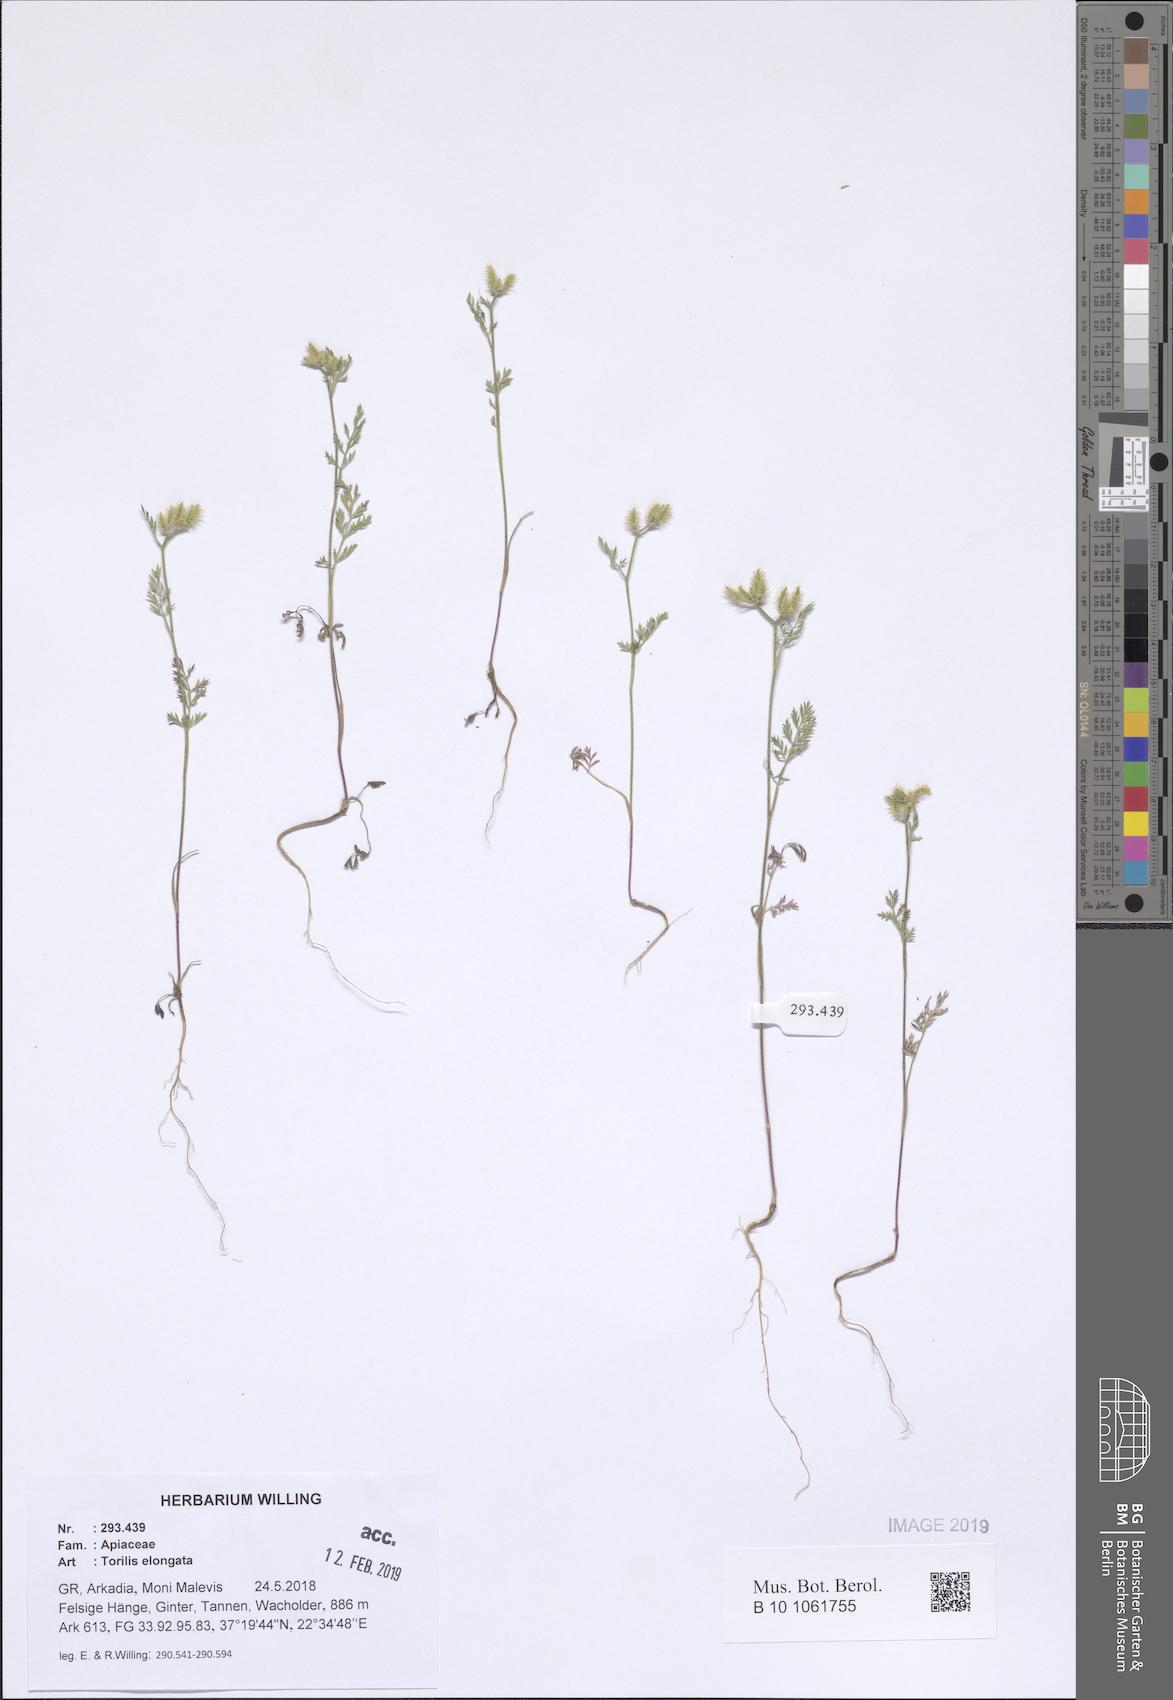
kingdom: Plantae
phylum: Tracheophyta
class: Magnoliopsida
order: Apiales
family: Apiaceae
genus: Torilis
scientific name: Torilis elongata
